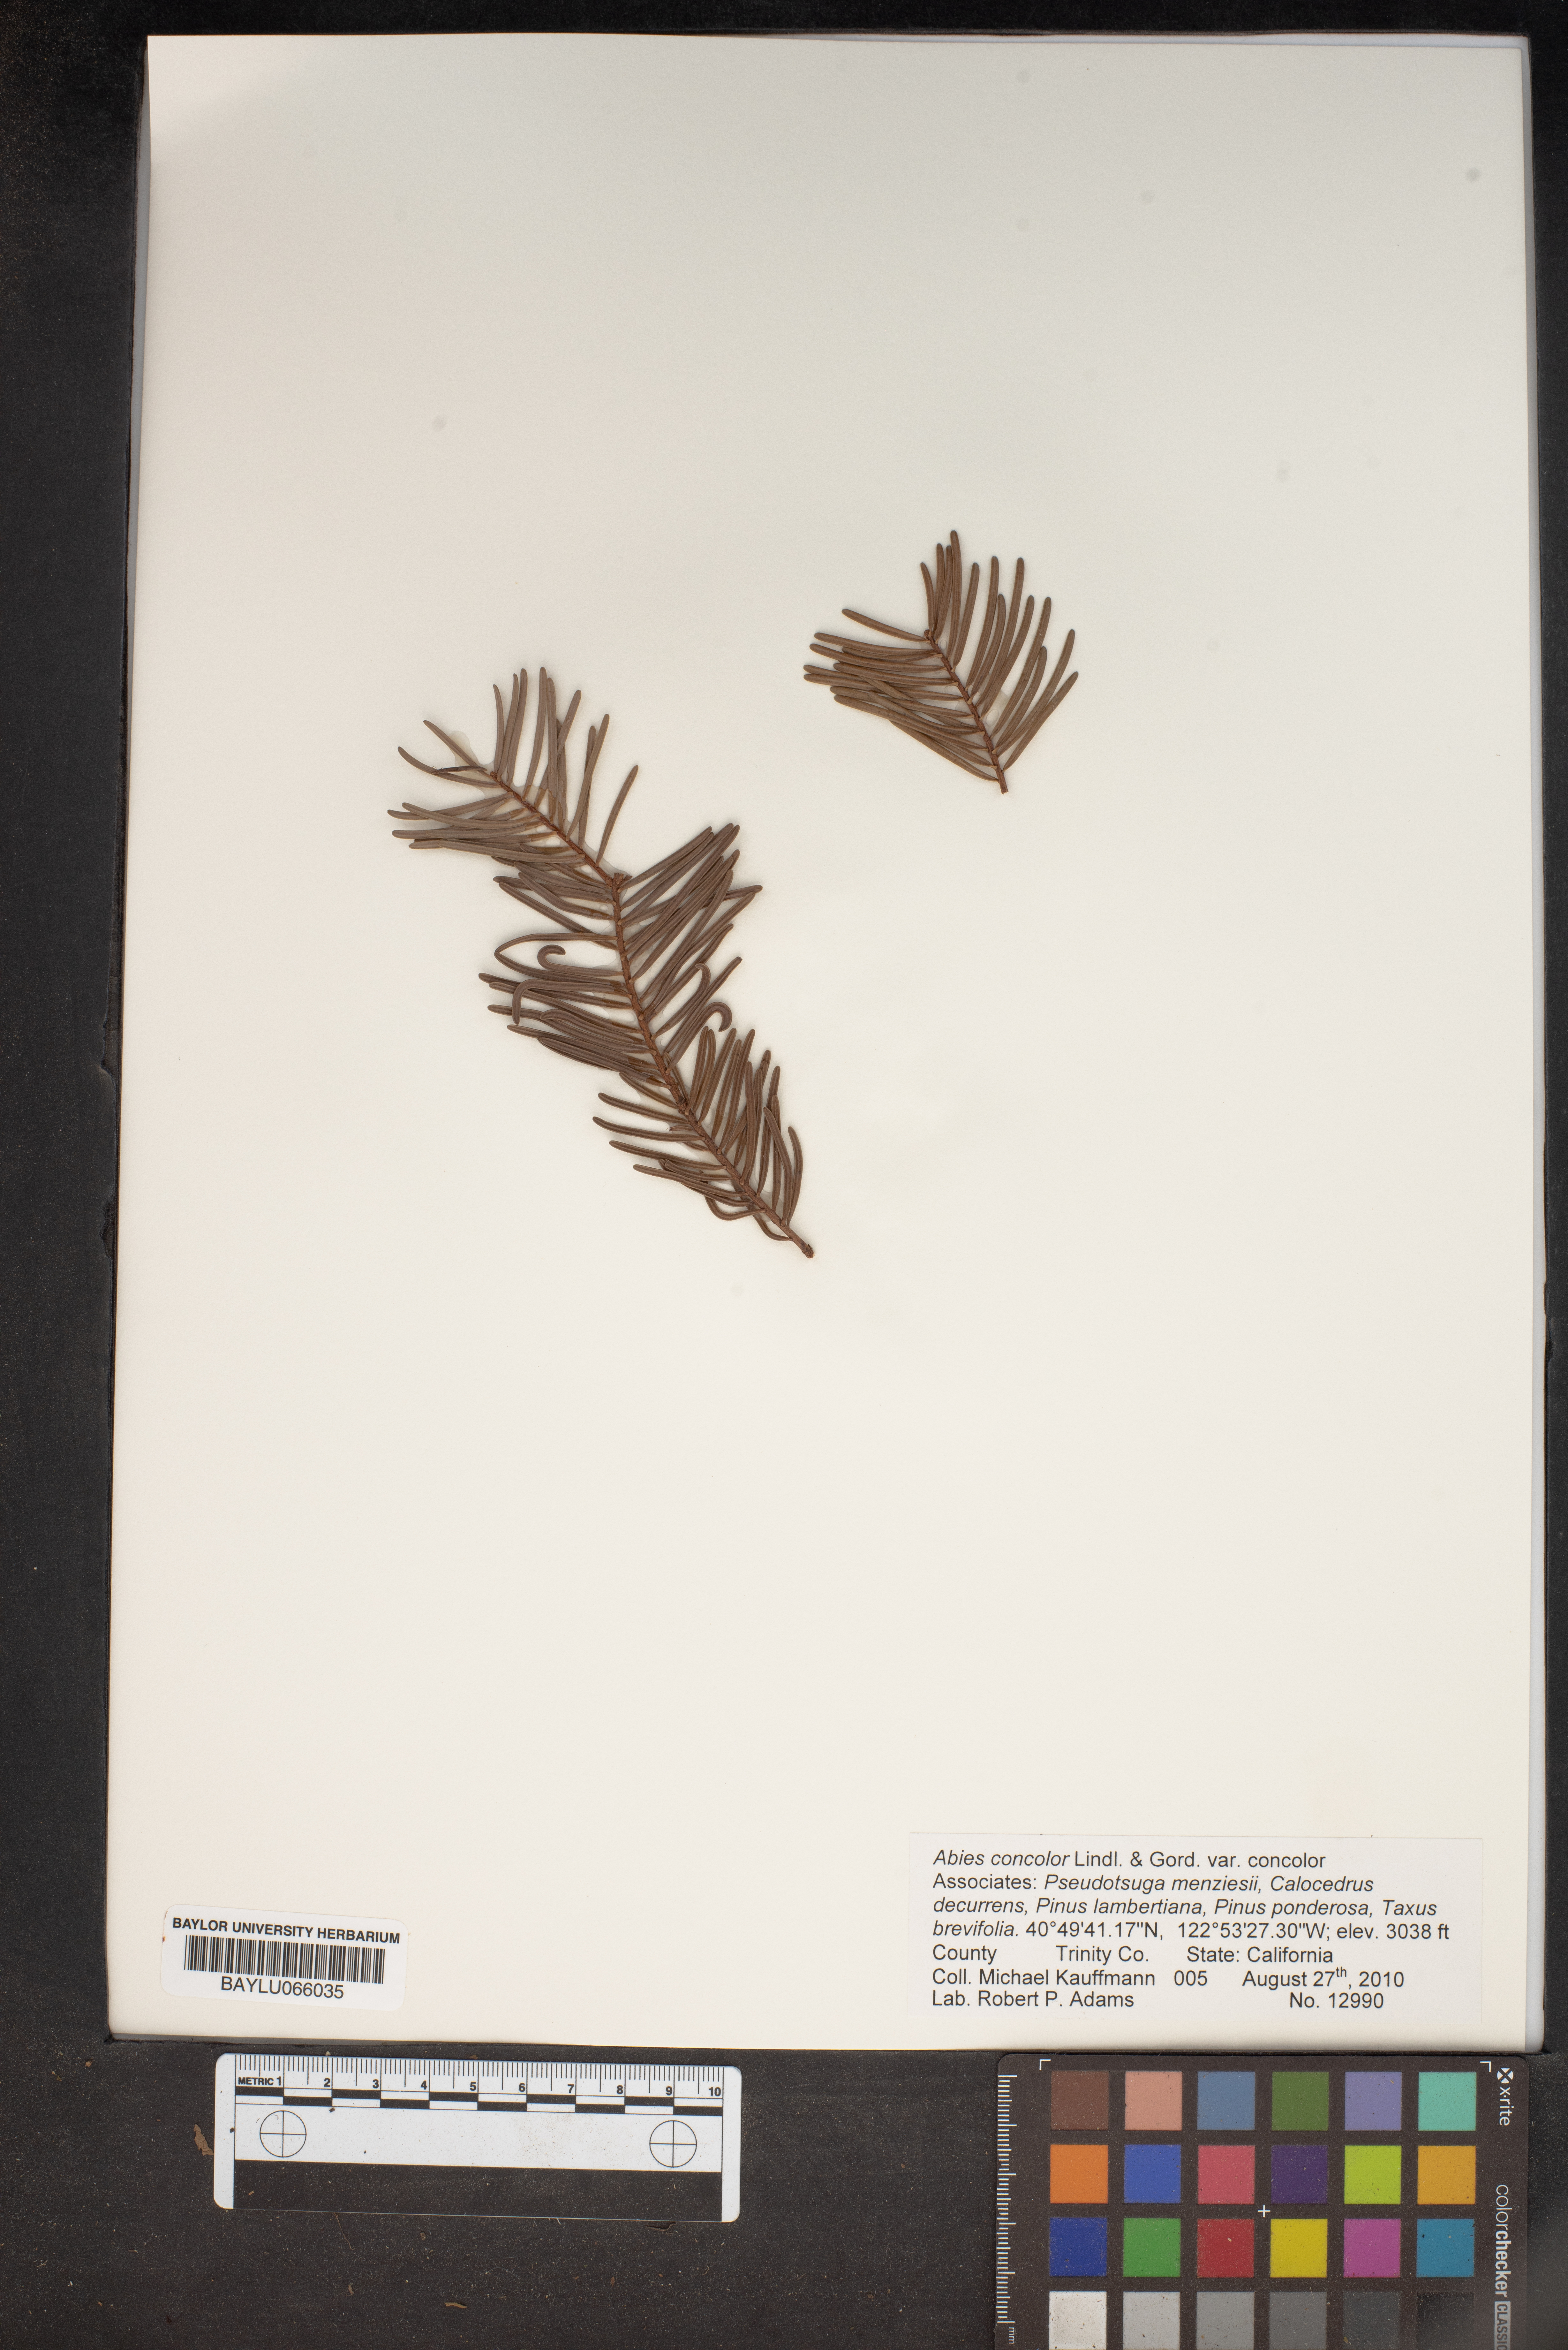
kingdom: Plantae
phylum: Tracheophyta
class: Pinopsida
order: Pinales
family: Pinaceae
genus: Abies
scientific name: Abies concolor
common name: Colorado fir
